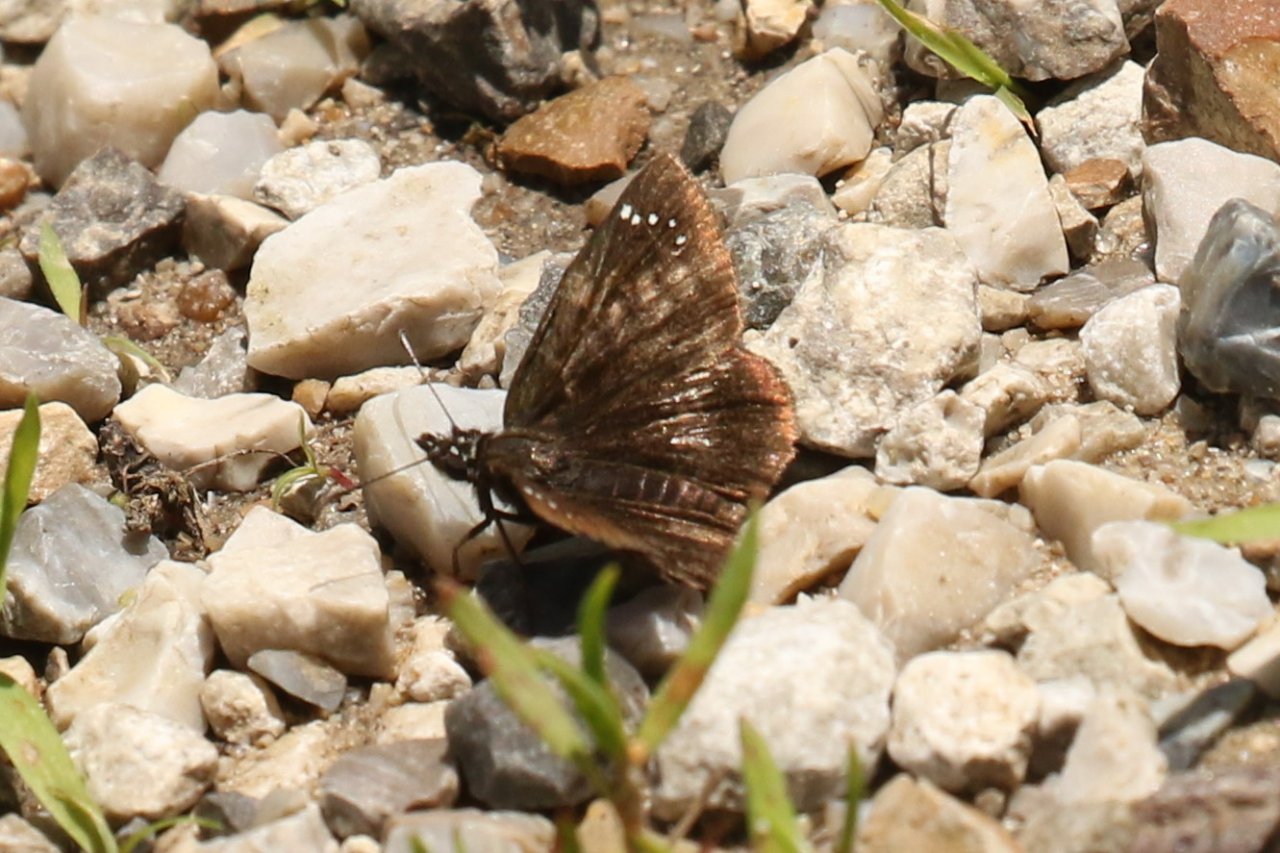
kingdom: Animalia
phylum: Arthropoda
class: Insecta
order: Lepidoptera
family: Hesperiidae
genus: Pholisora
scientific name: Pholisora catullus
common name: Common Sootywing
